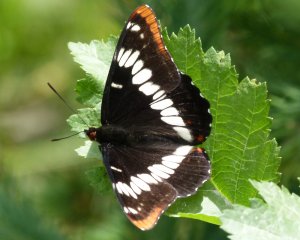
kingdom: Animalia
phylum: Arthropoda
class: Insecta
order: Lepidoptera
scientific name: Lepidoptera
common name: Butterflies
